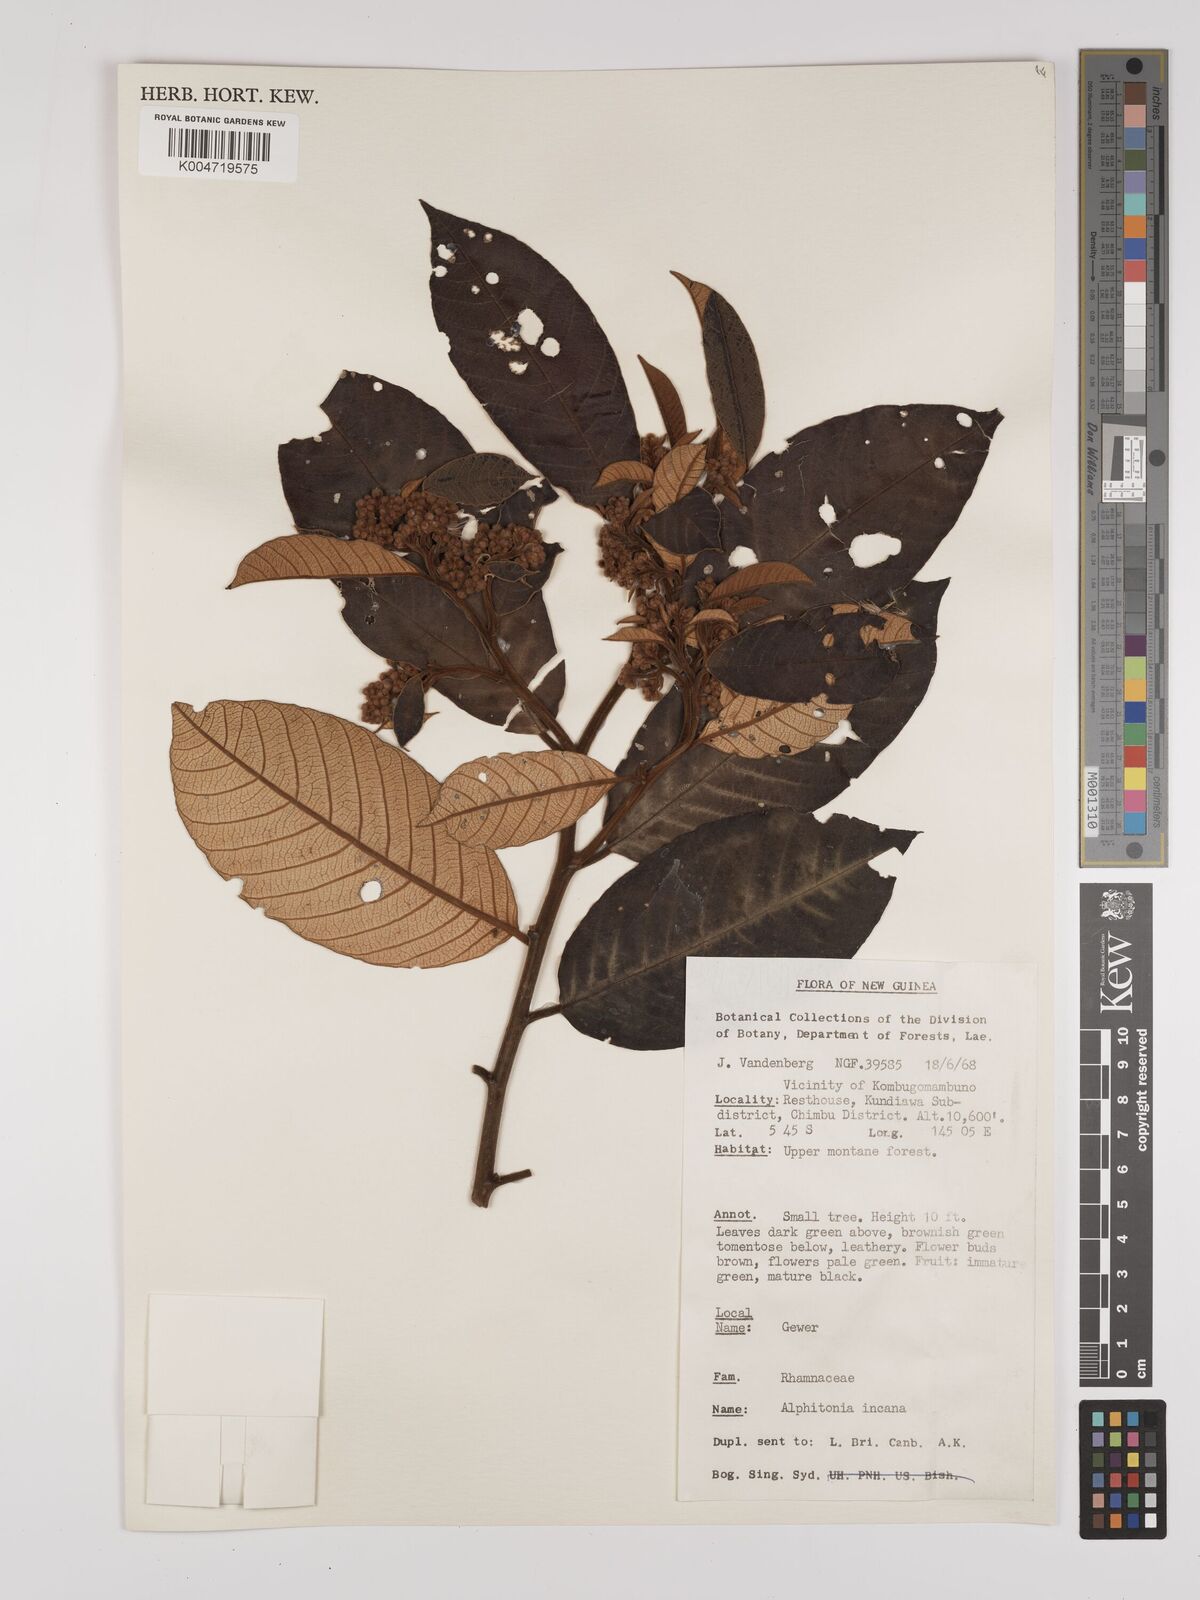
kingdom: Plantae
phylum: Tracheophyta
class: Magnoliopsida
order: Rosales
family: Rhamnaceae
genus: Alphitonia
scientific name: Alphitonia incana
